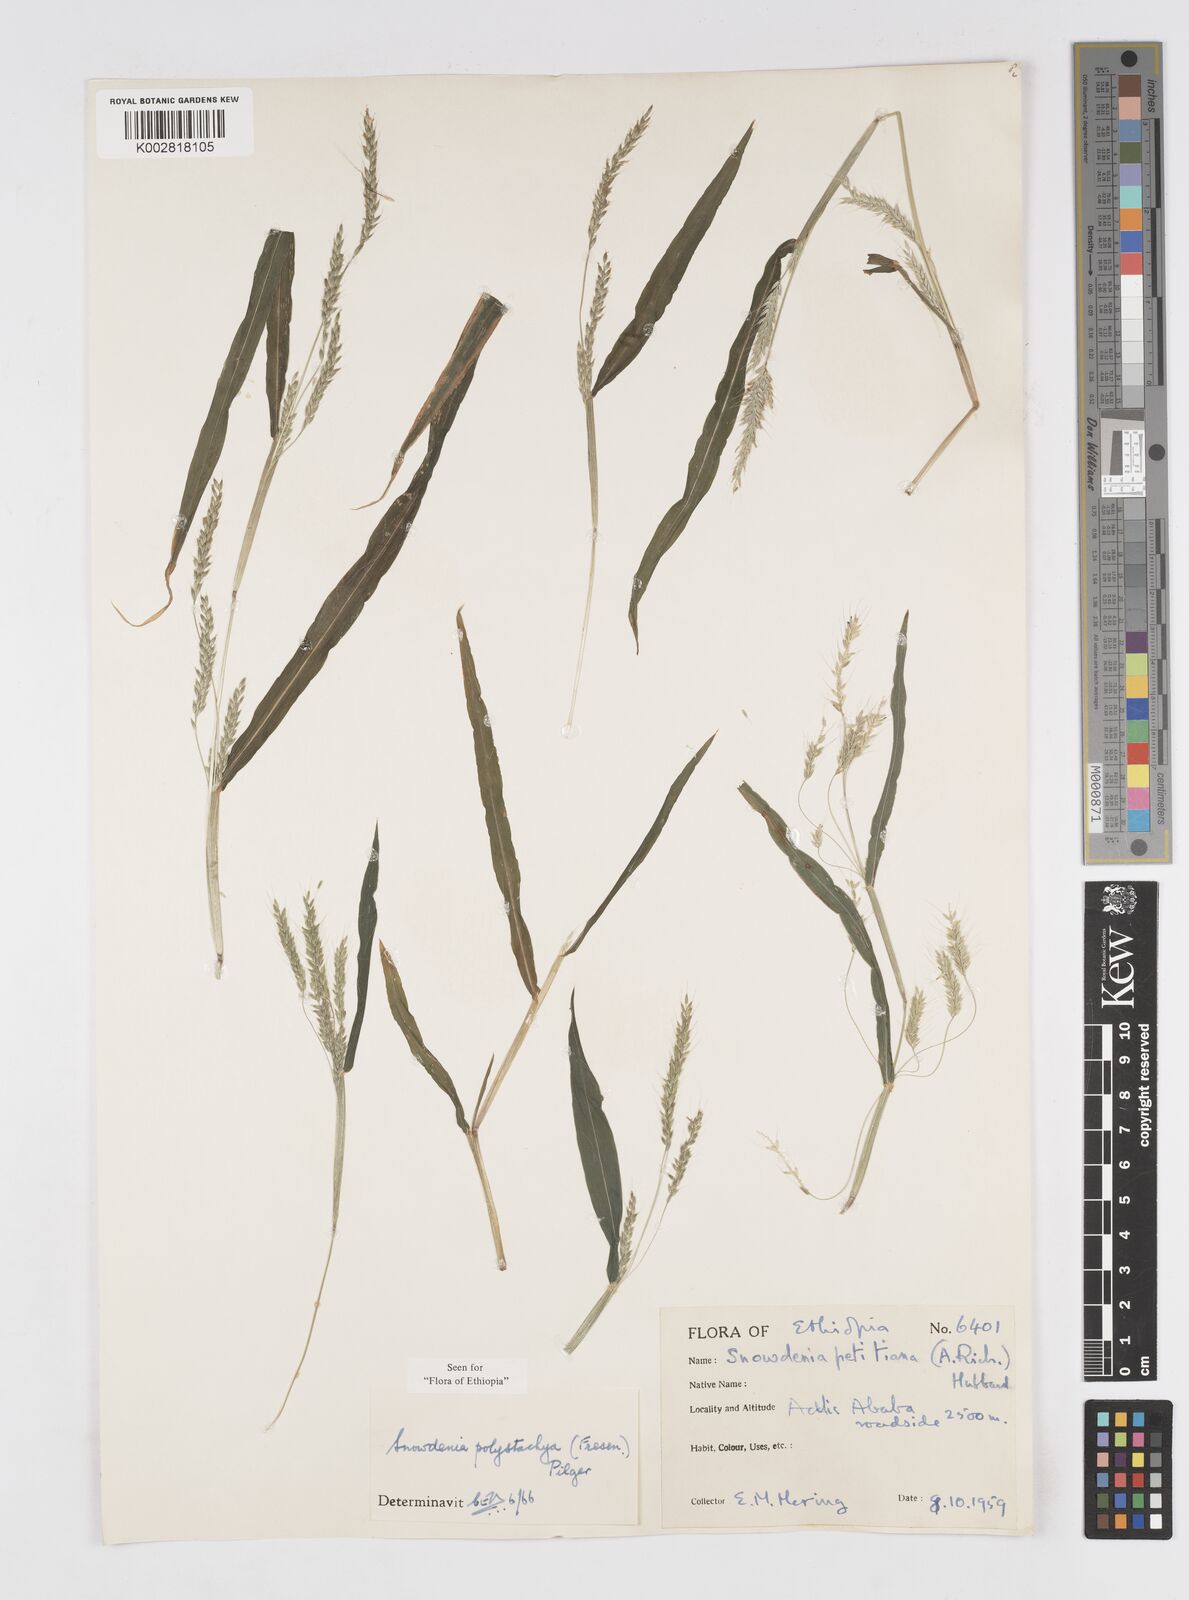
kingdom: Plantae
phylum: Tracheophyta
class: Liliopsida
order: Poales
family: Poaceae
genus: Snowdenia
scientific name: Snowdenia polystachya
